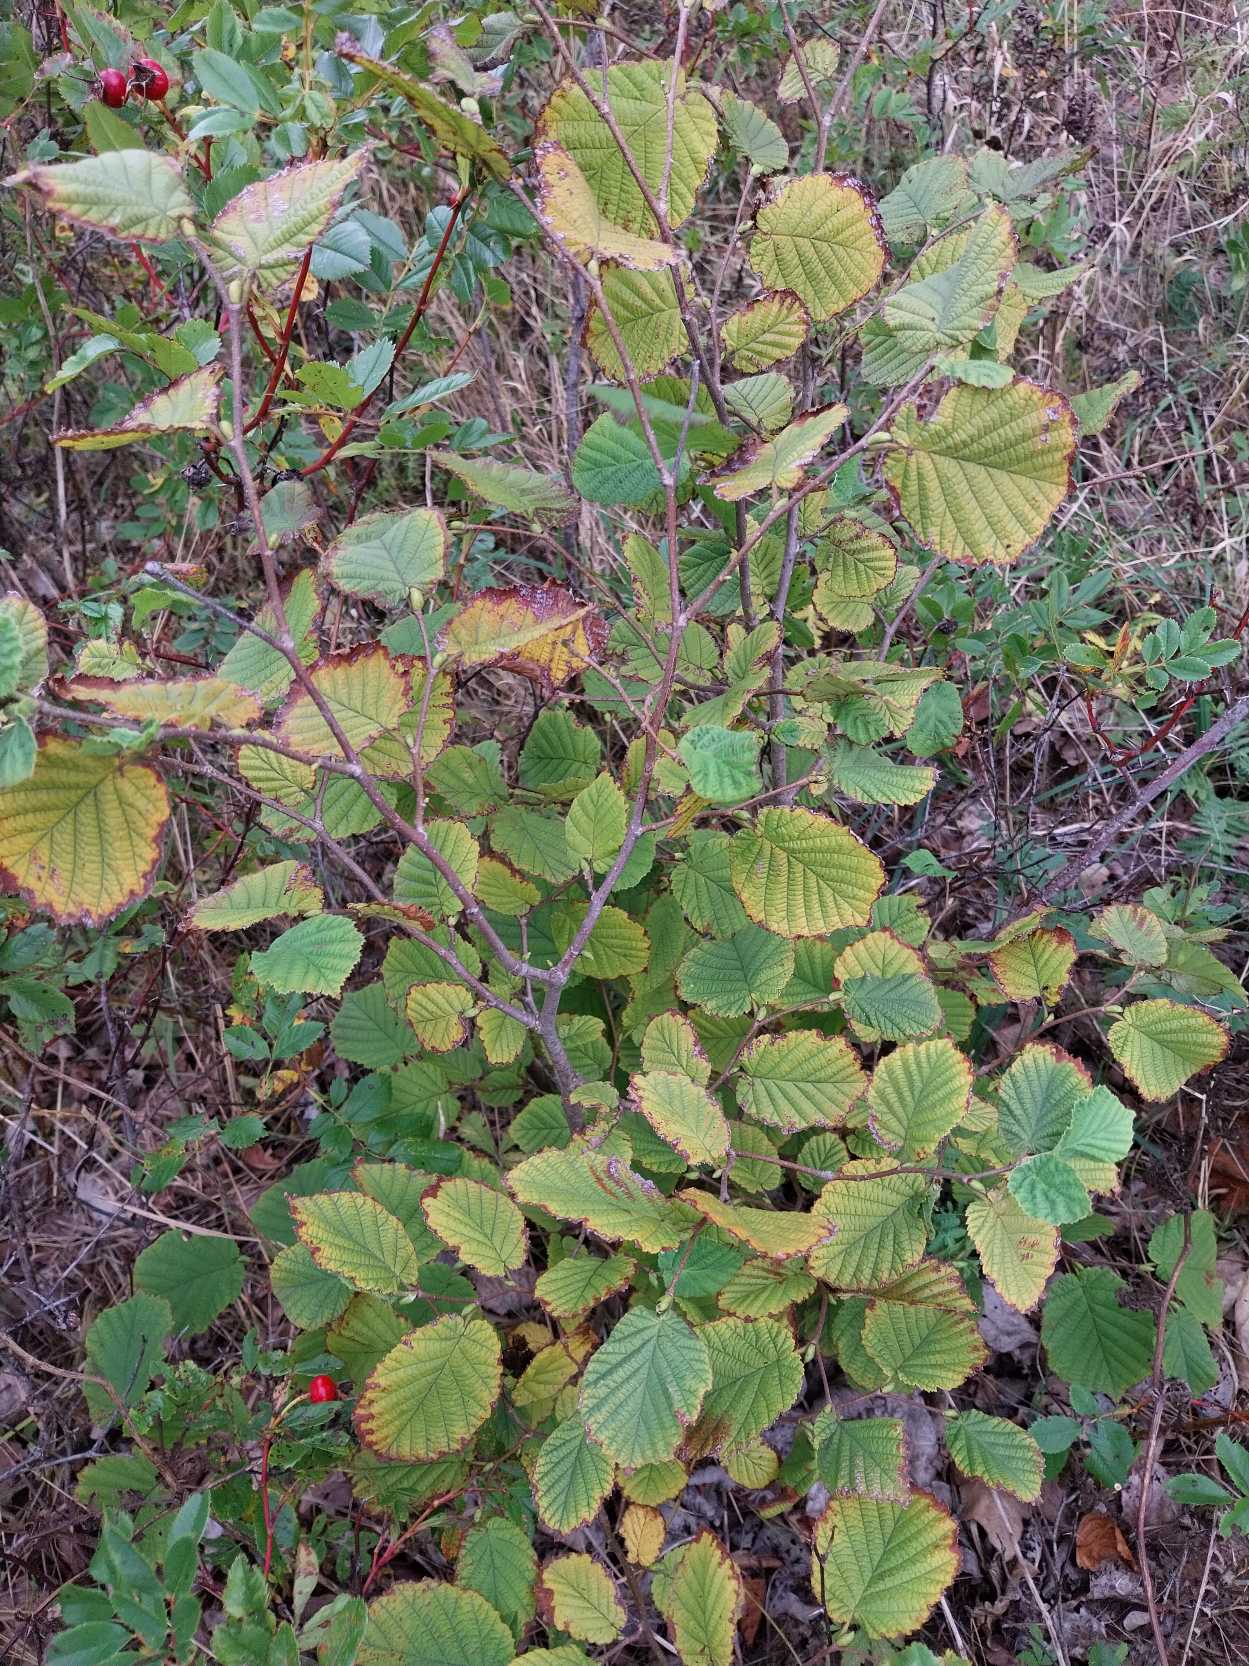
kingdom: Plantae
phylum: Tracheophyta
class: Magnoliopsida
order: Fagales
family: Betulaceae
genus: Corylus
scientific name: Corylus avellana
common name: Hassel
